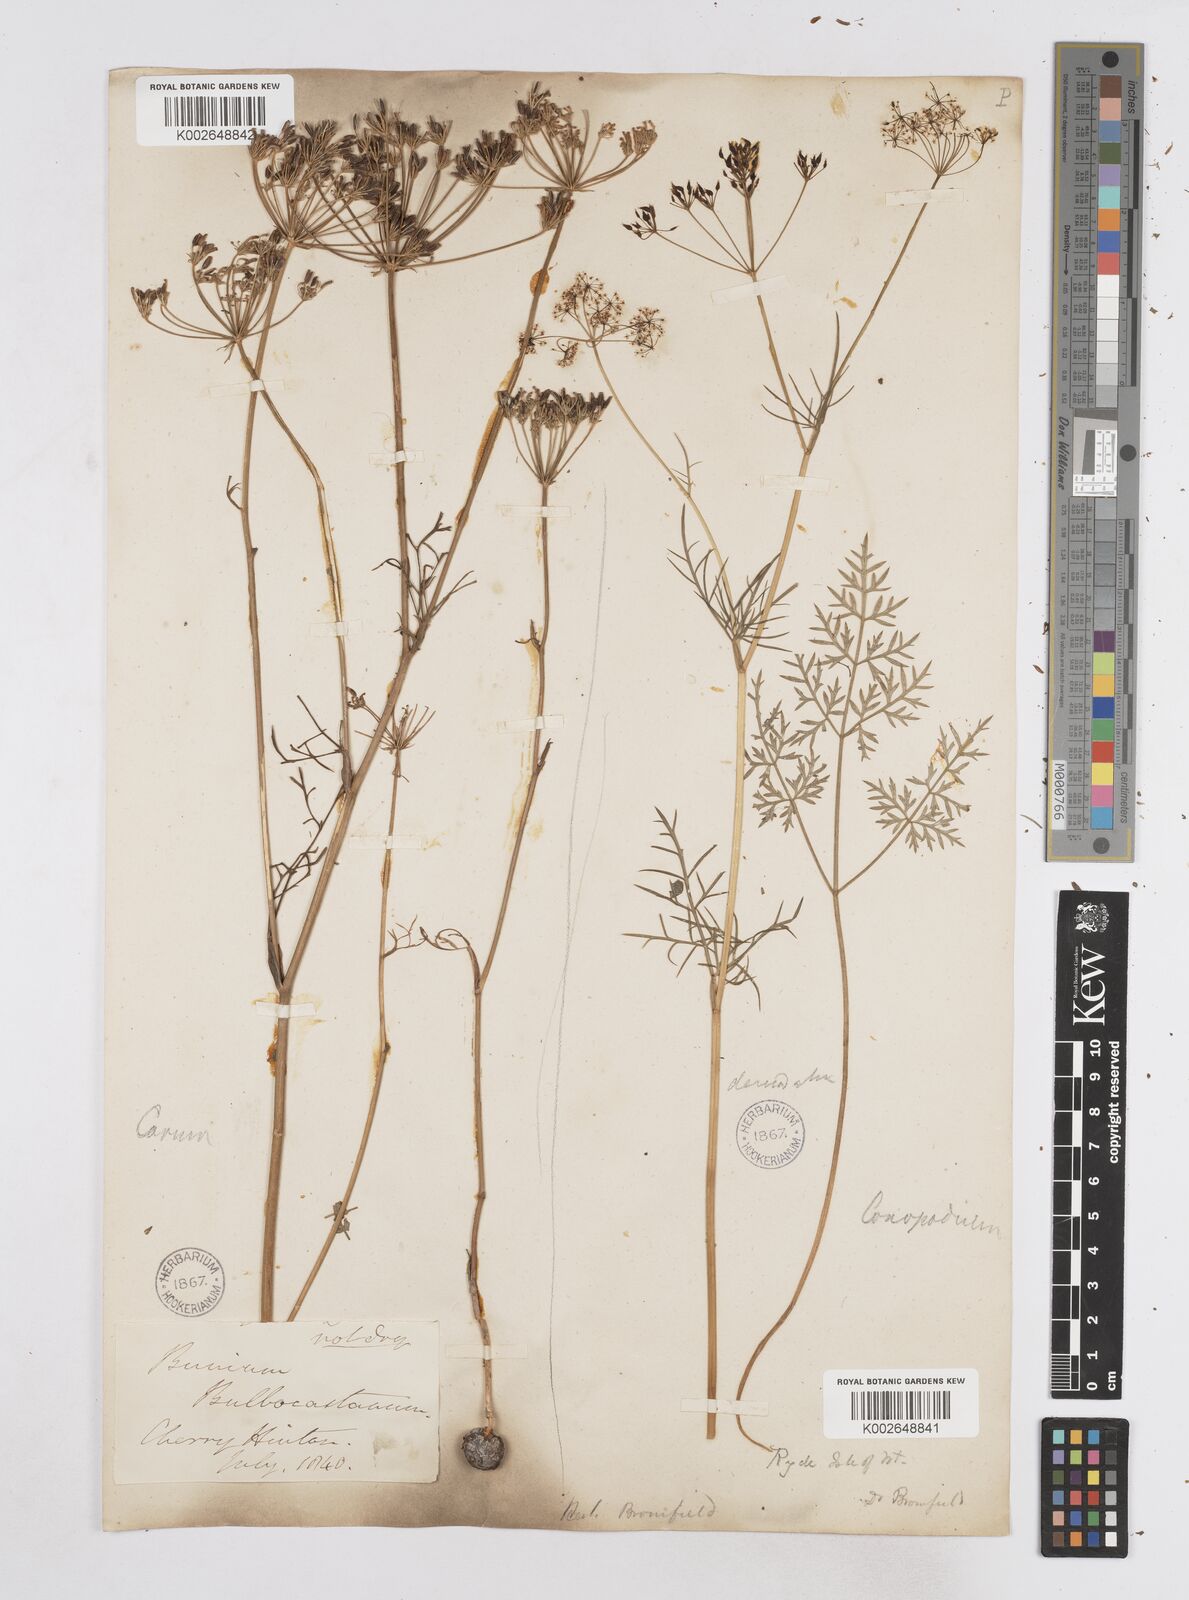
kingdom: Plantae
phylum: Tracheophyta
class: Magnoliopsida
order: Apiales
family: Apiaceae
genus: Bunium
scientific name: Bunium bulbocastanum
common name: Great pignut
